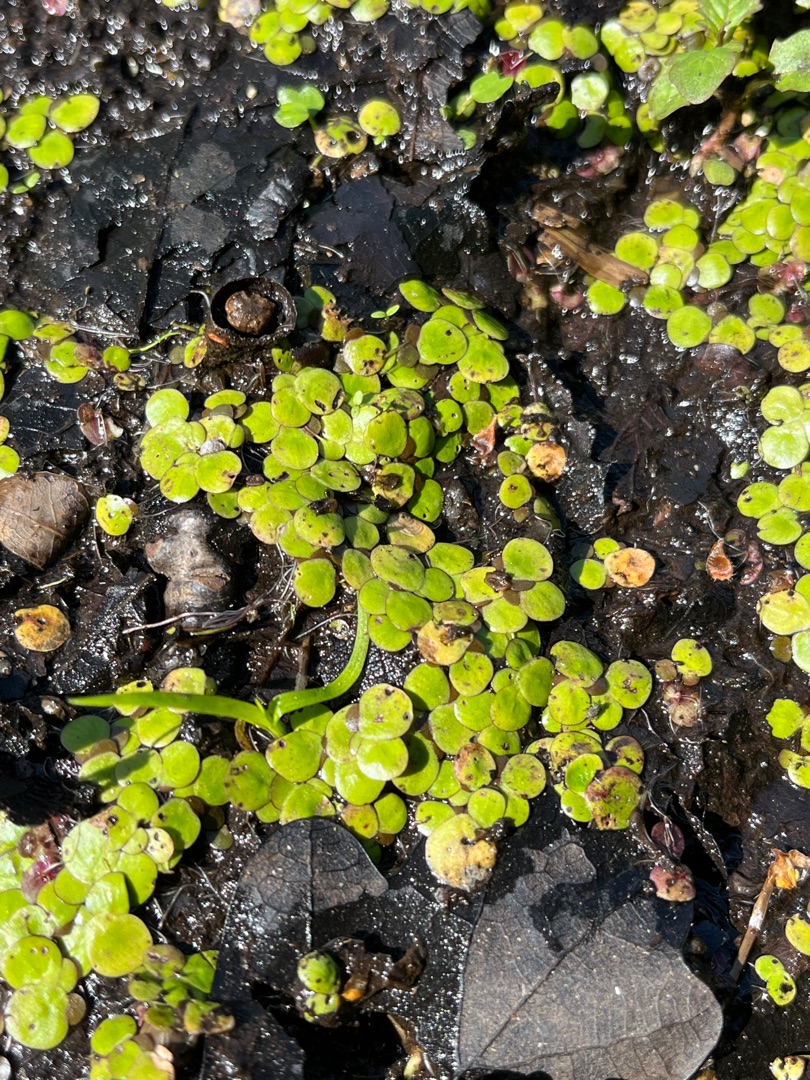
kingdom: Plantae
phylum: Tracheophyta
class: Liliopsida
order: Alismatales
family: Araceae
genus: Spirodela
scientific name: Spirodela polyrhiza
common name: Stor andemad
